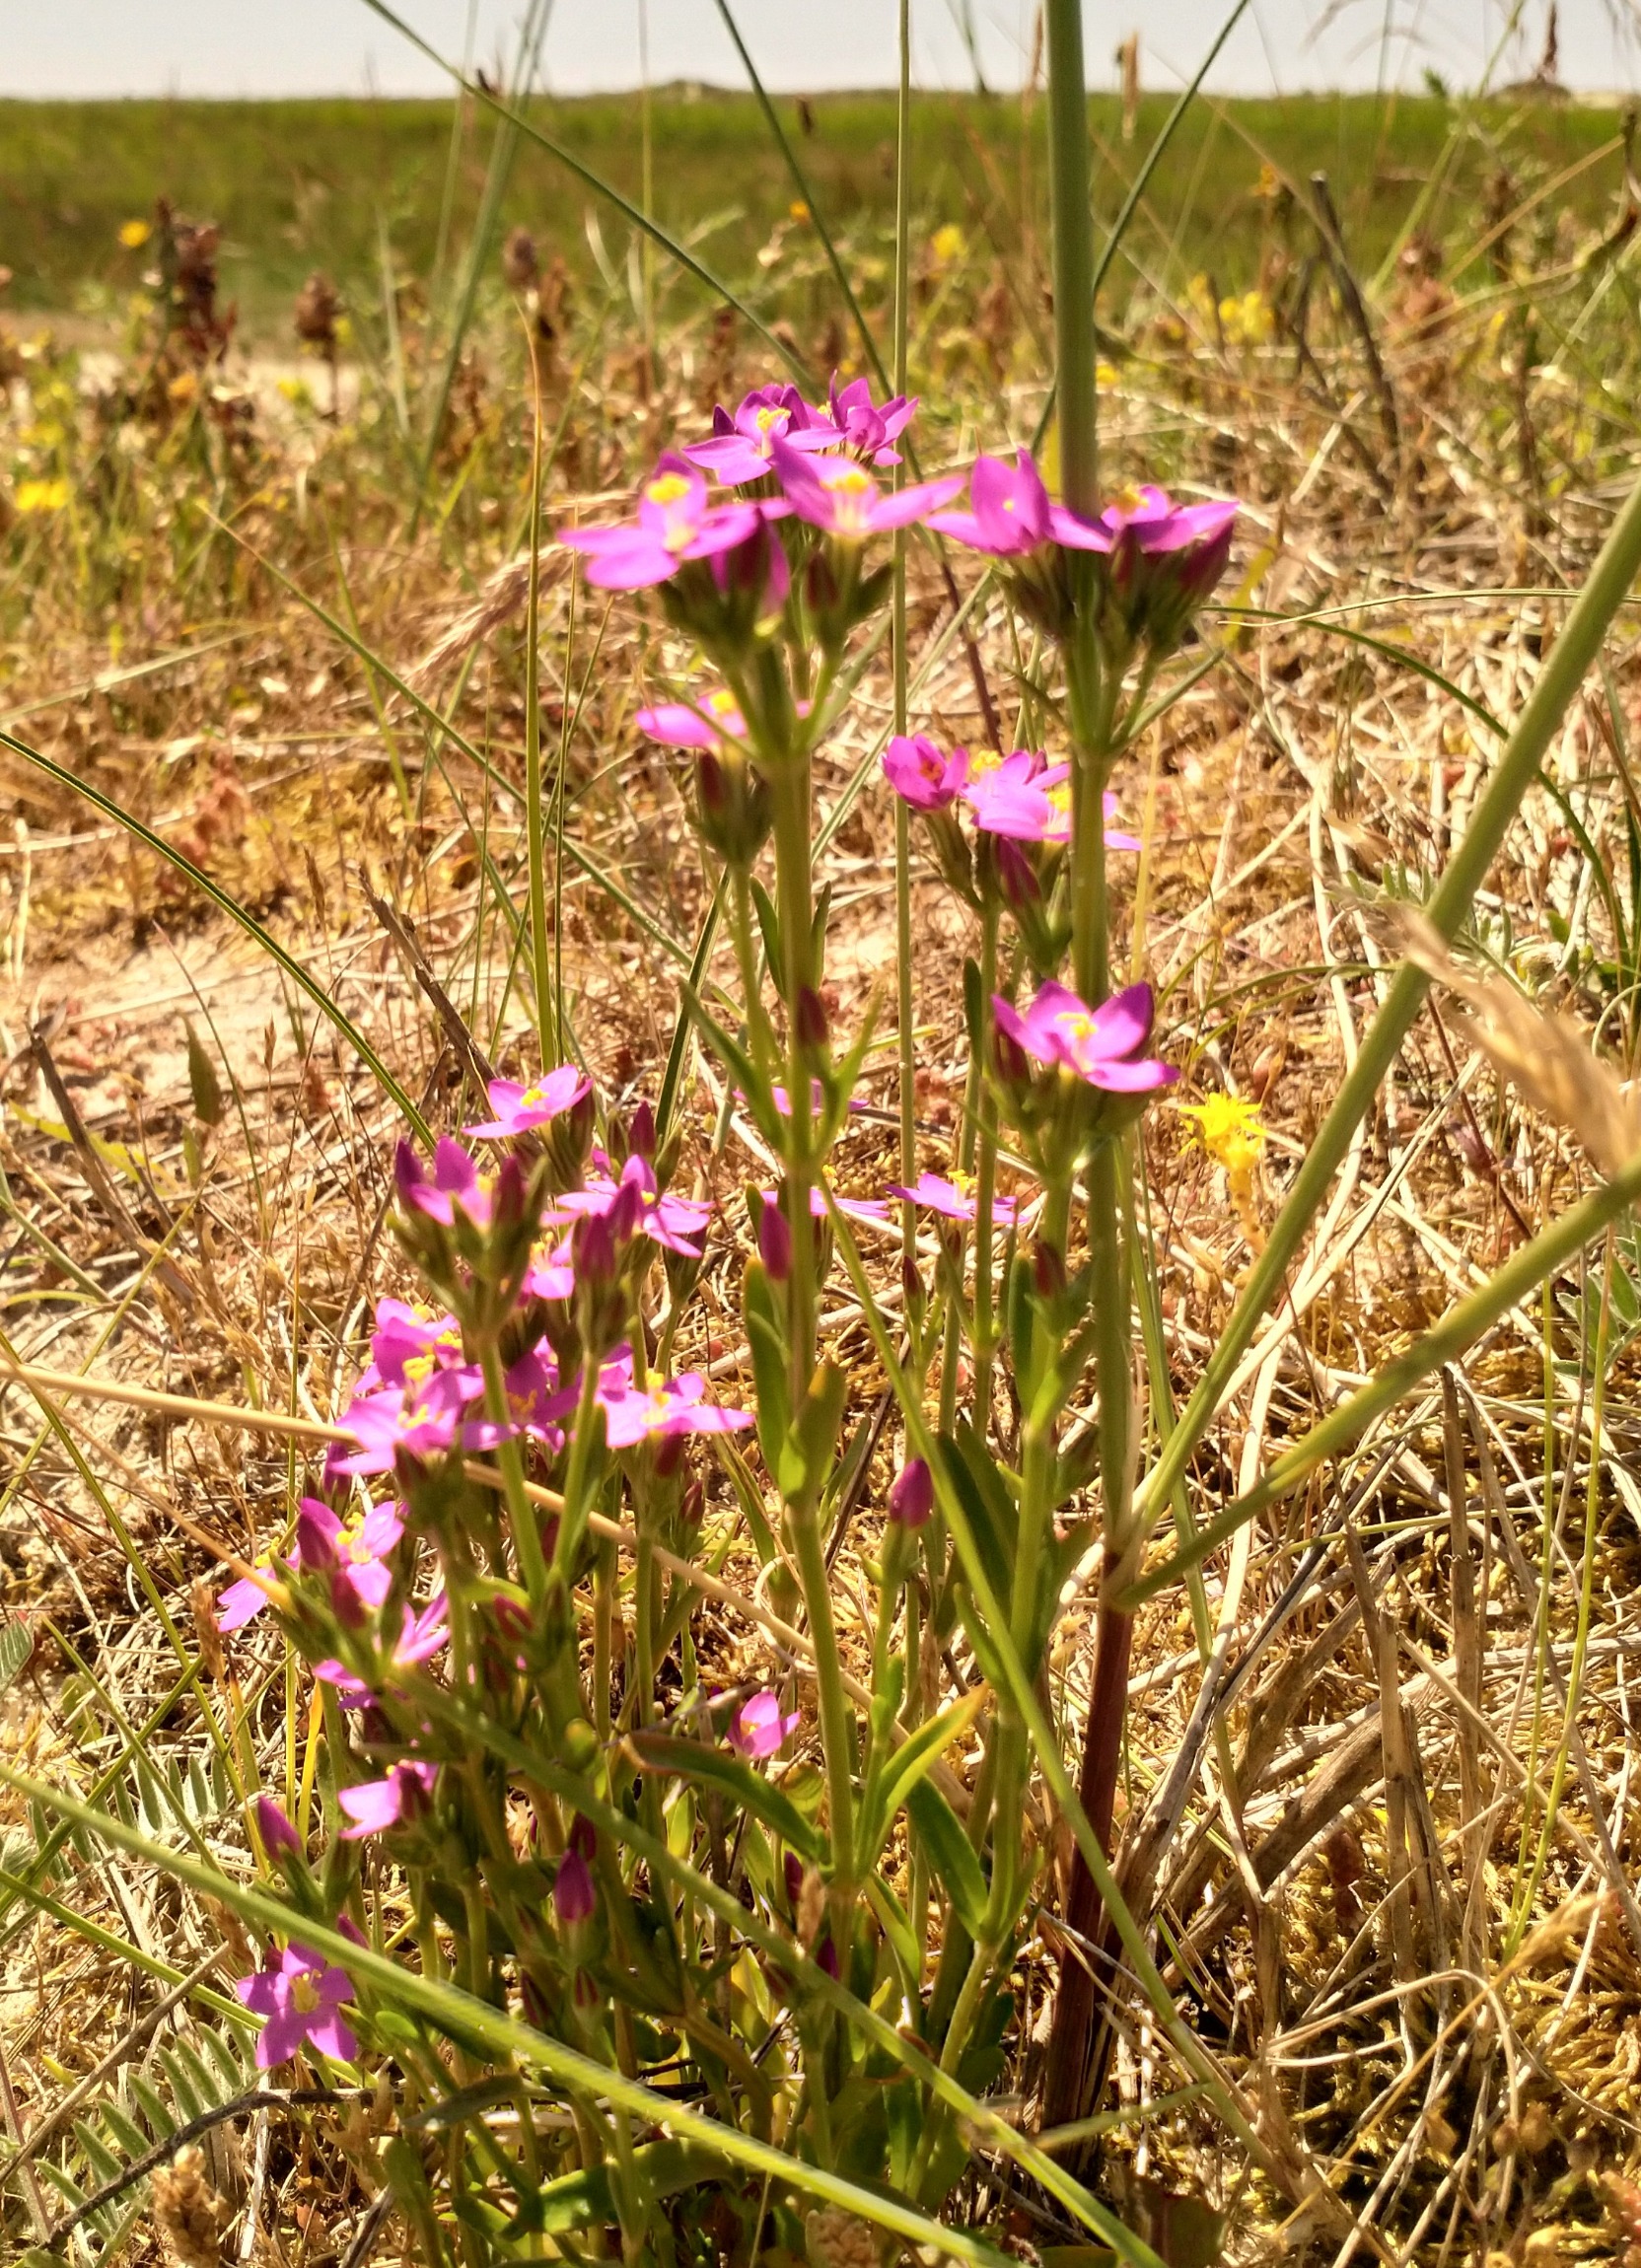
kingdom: Plantae
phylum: Tracheophyta
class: Magnoliopsida
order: Gentianales
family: Gentianaceae
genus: Centaurium
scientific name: Centaurium littorale
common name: Strand-tusindgylden
